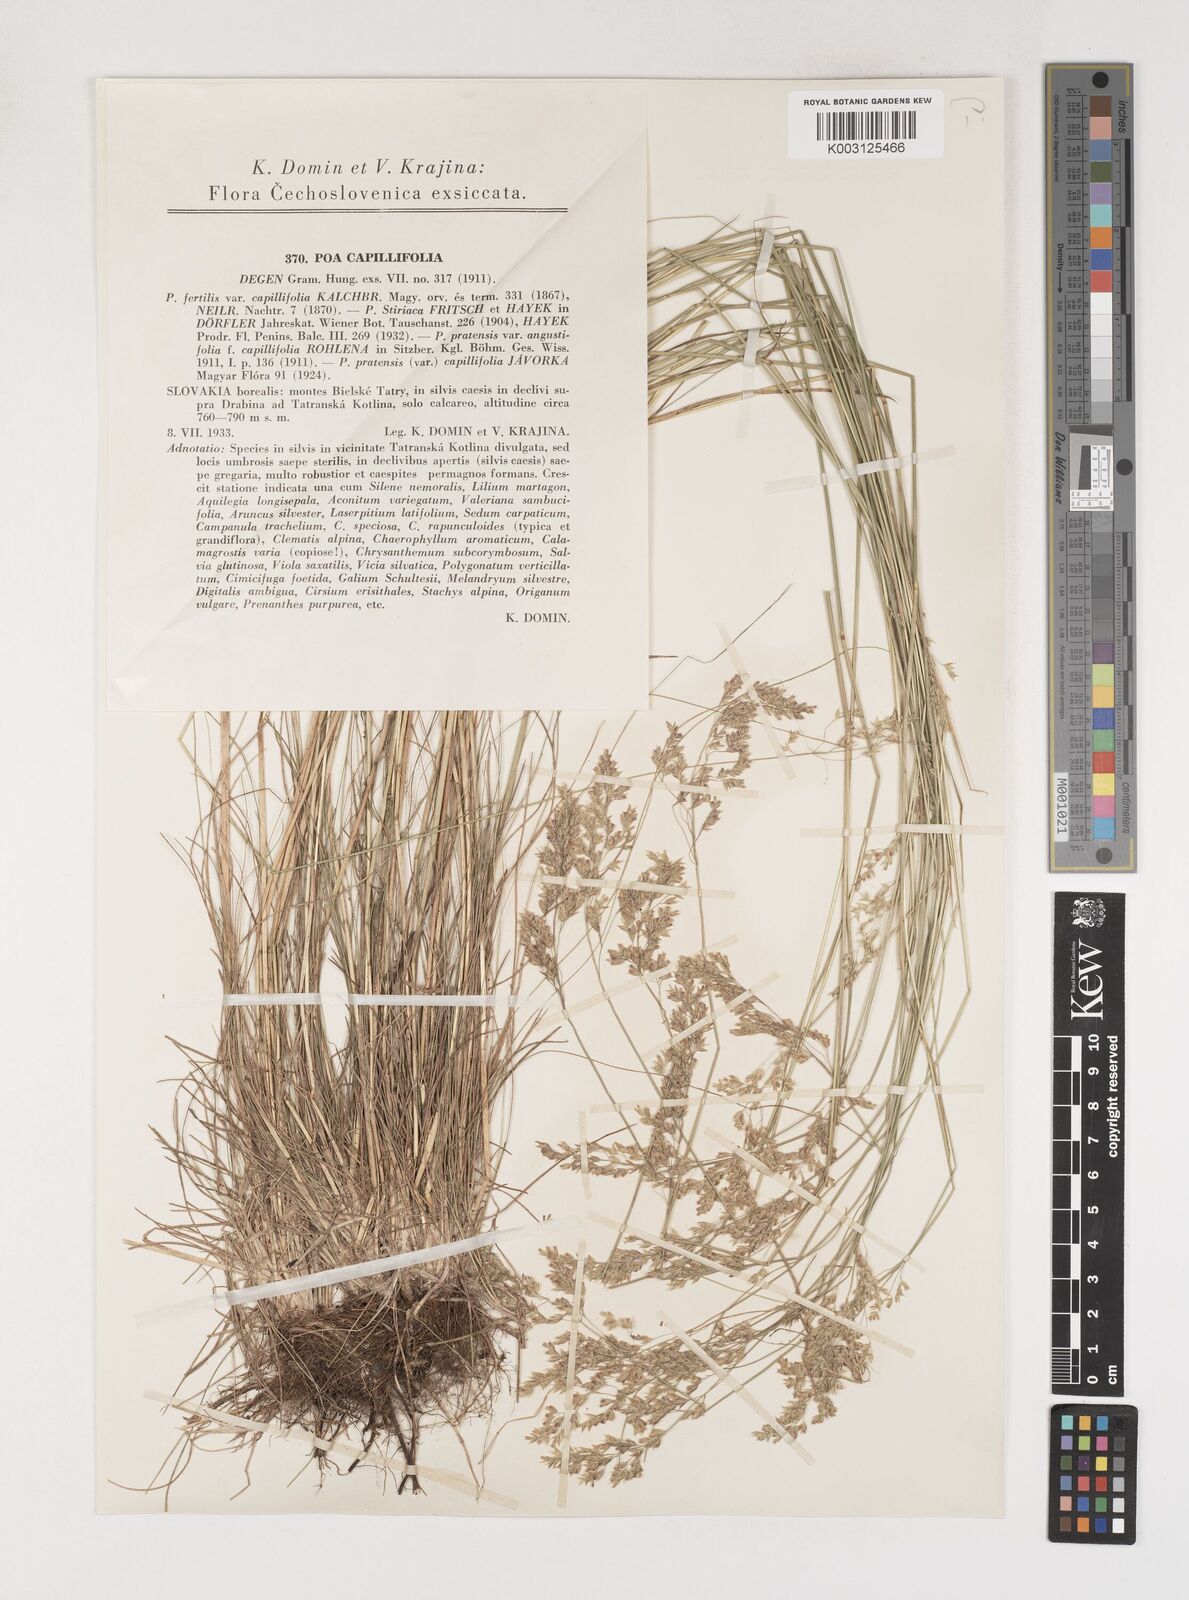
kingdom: Plantae
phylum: Tracheophyta
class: Liliopsida
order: Poales
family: Poaceae
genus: Poa
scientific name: Poa angustifolia
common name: Narrow-leaved meadow-grass
